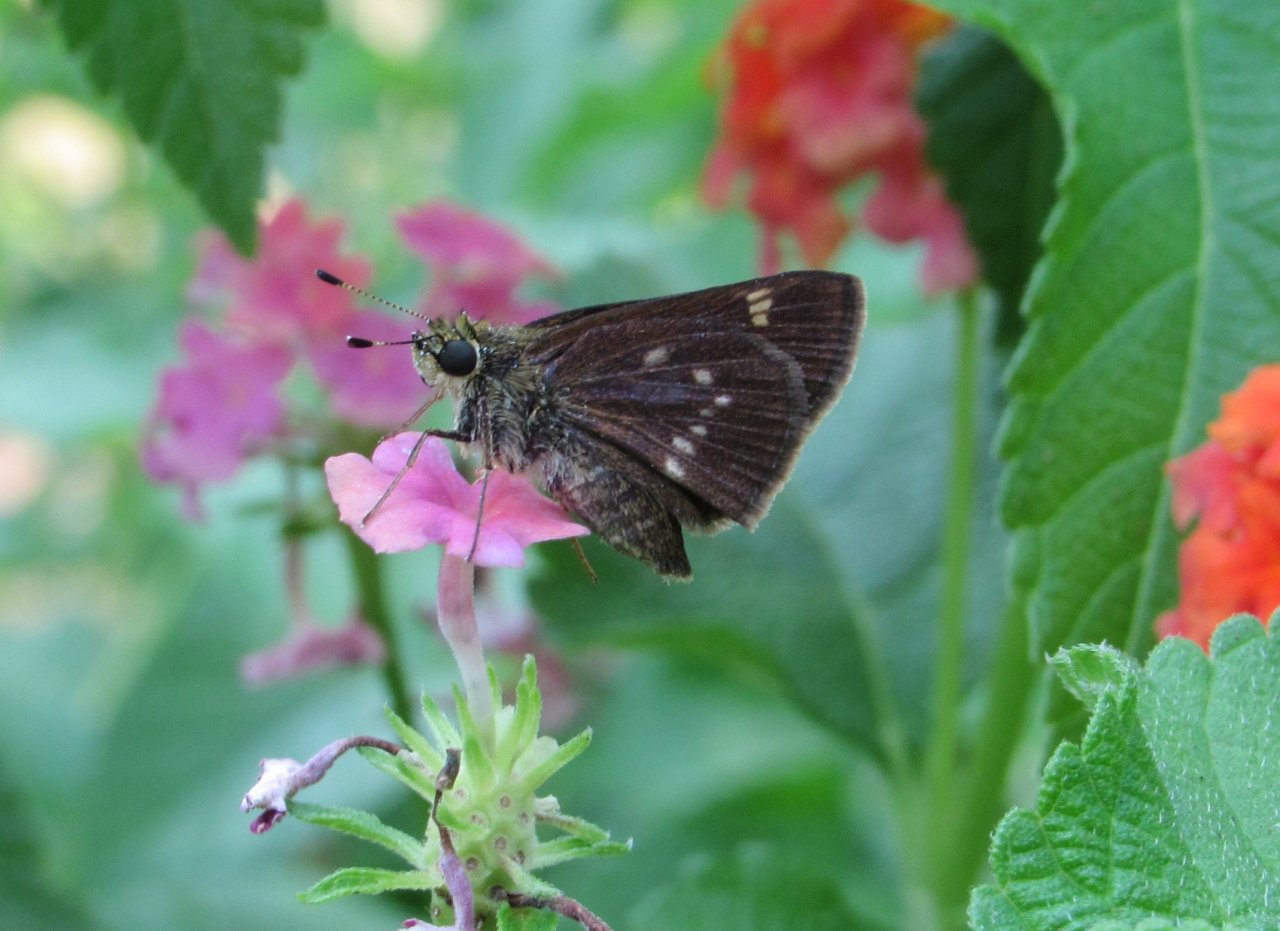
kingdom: Animalia
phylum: Arthropoda
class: Insecta
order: Lepidoptera
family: Hesperiidae
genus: Vernia
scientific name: Vernia verna
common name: Little Glassywing
